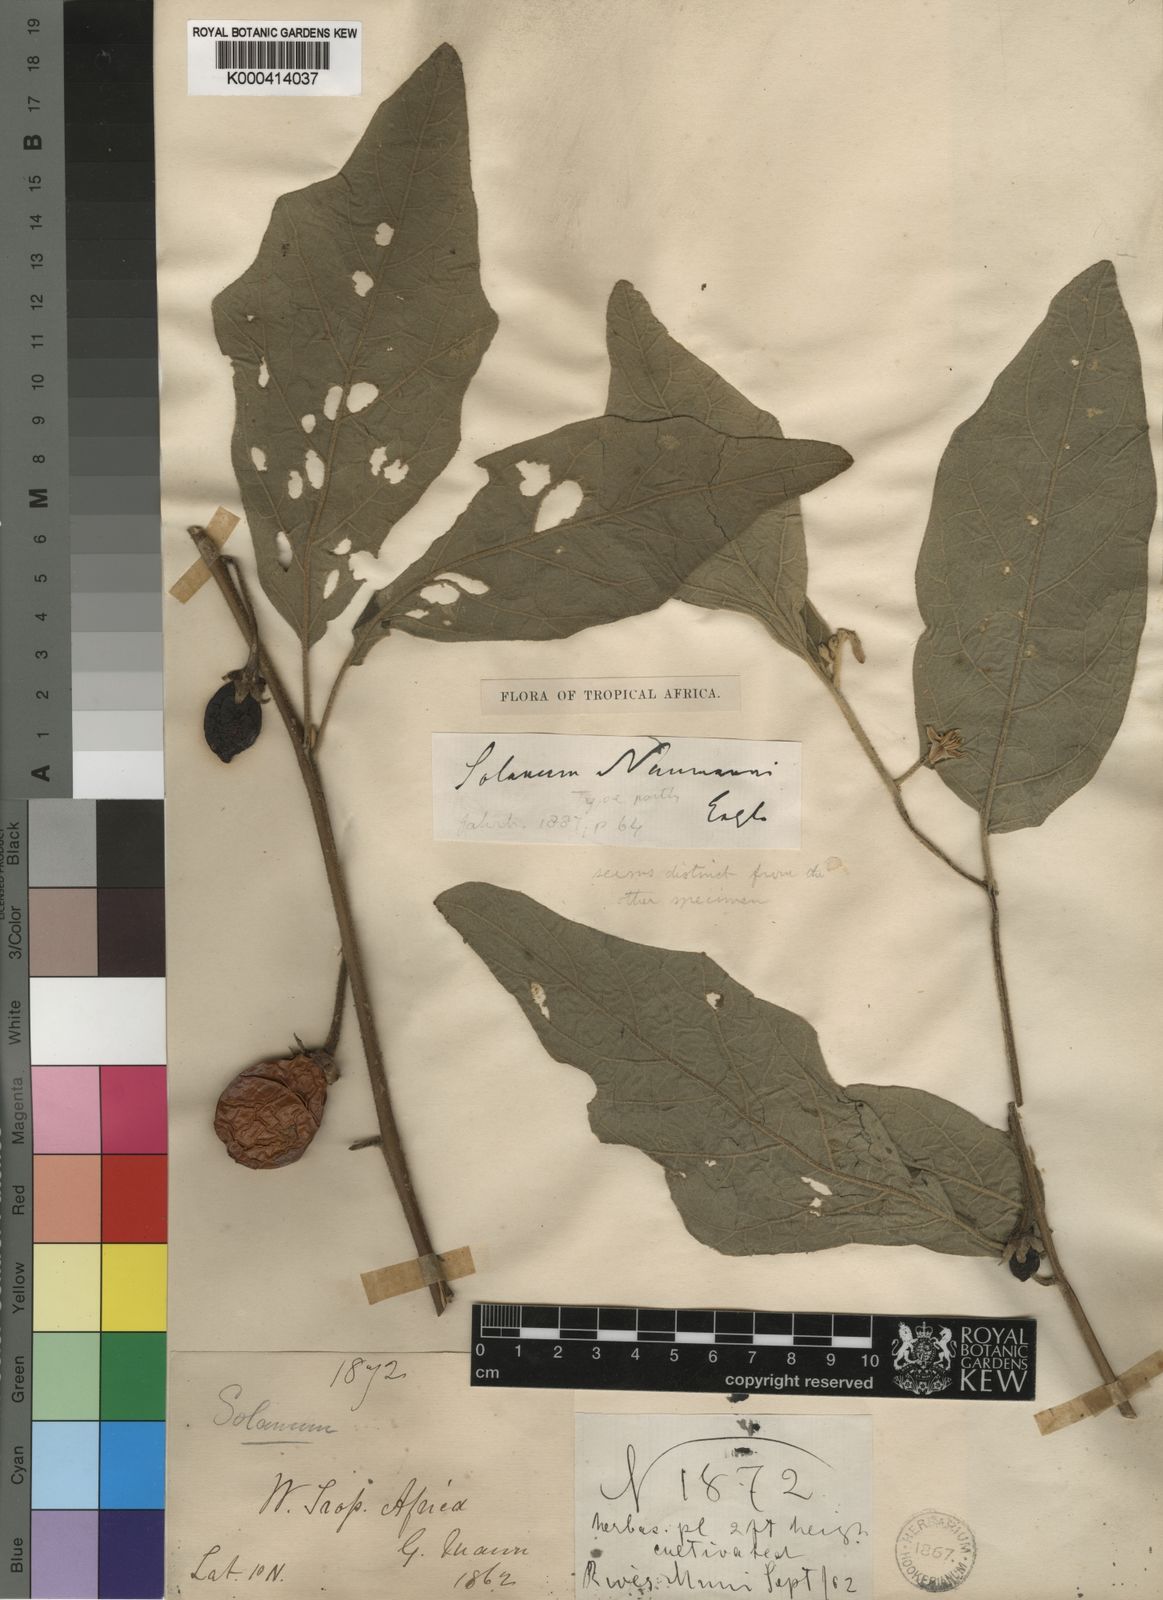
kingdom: Plantae
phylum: Tracheophyta
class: Magnoliopsida
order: Solanales
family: Solanaceae
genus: Solanum
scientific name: Solanum aethiopicum
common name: Gilo
